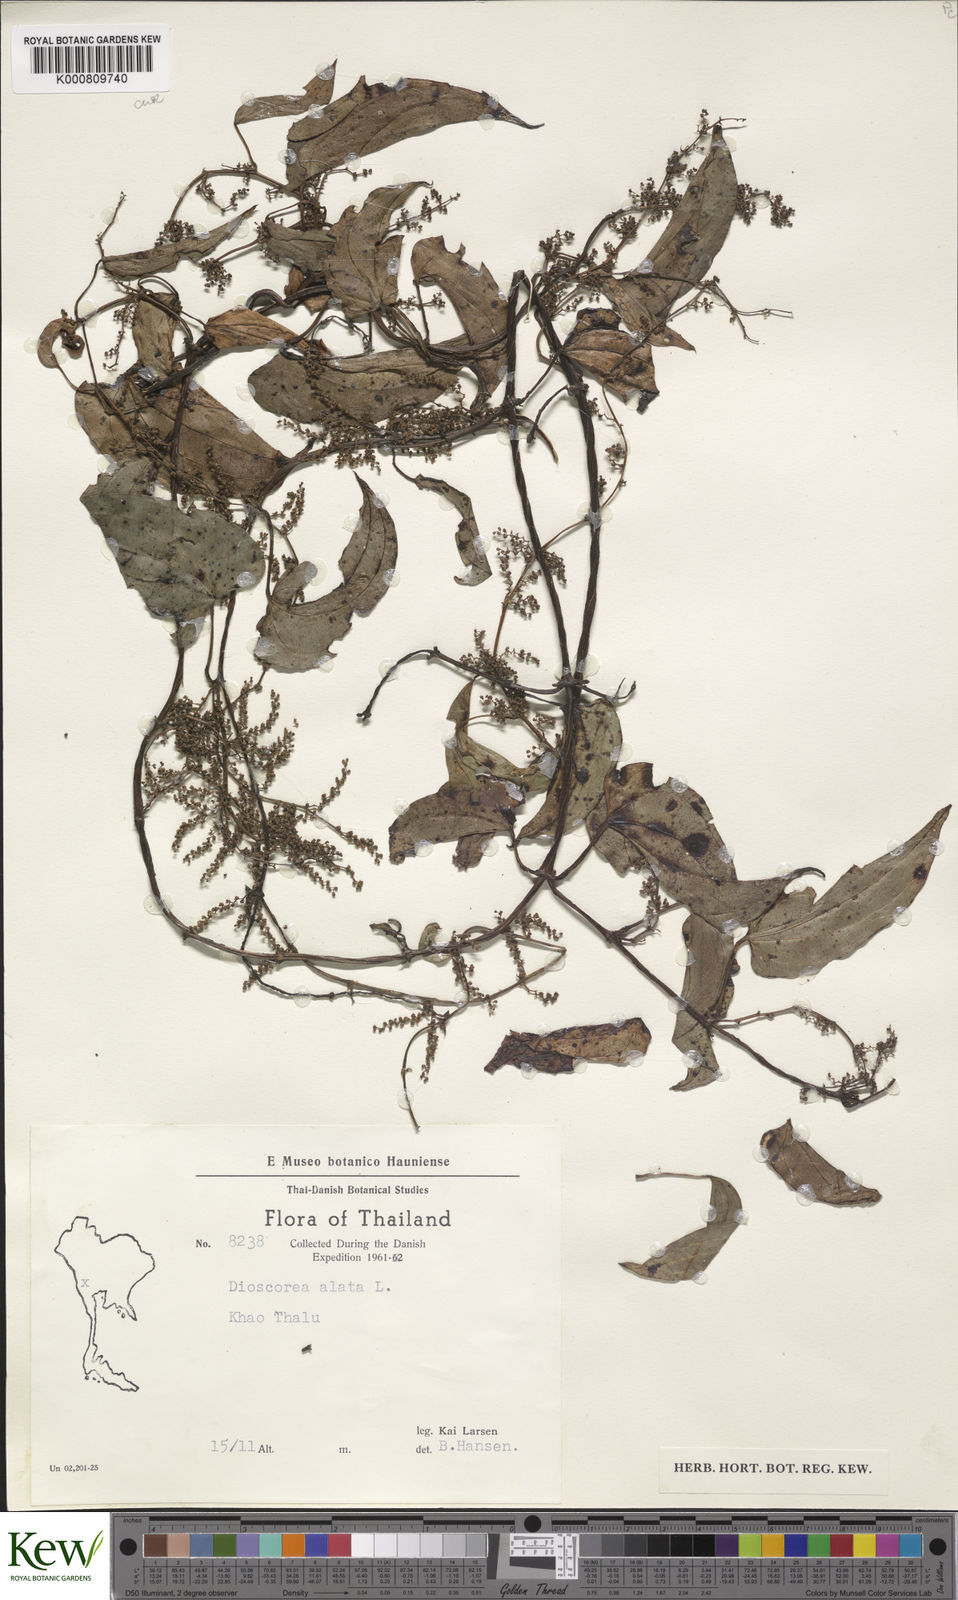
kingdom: Plantae
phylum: Tracheophyta
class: Liliopsida
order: Dioscoreales
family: Dioscoreaceae
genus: Dioscorea
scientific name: Dioscorea alata
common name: Water yam
